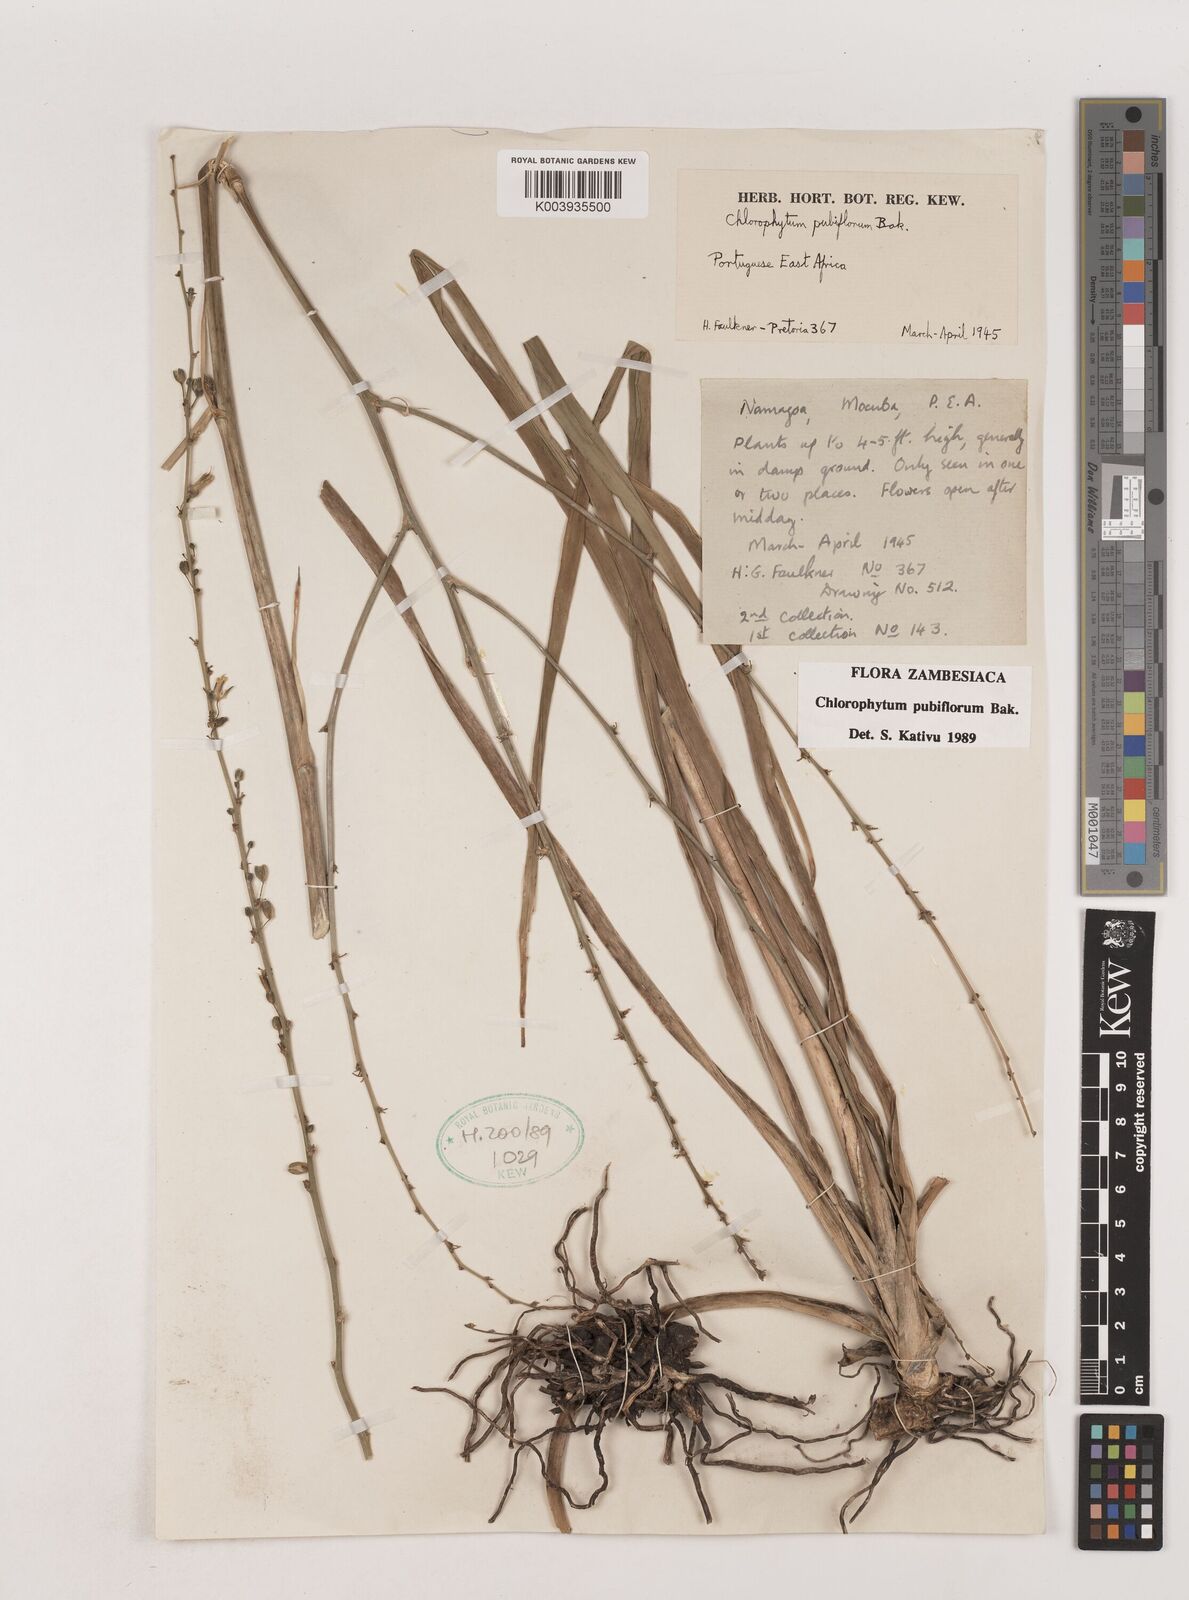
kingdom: Plantae
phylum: Tracheophyta
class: Liliopsida
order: Asparagales
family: Asparagaceae
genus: Chlorophytum
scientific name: Chlorophytum pubiflorum
